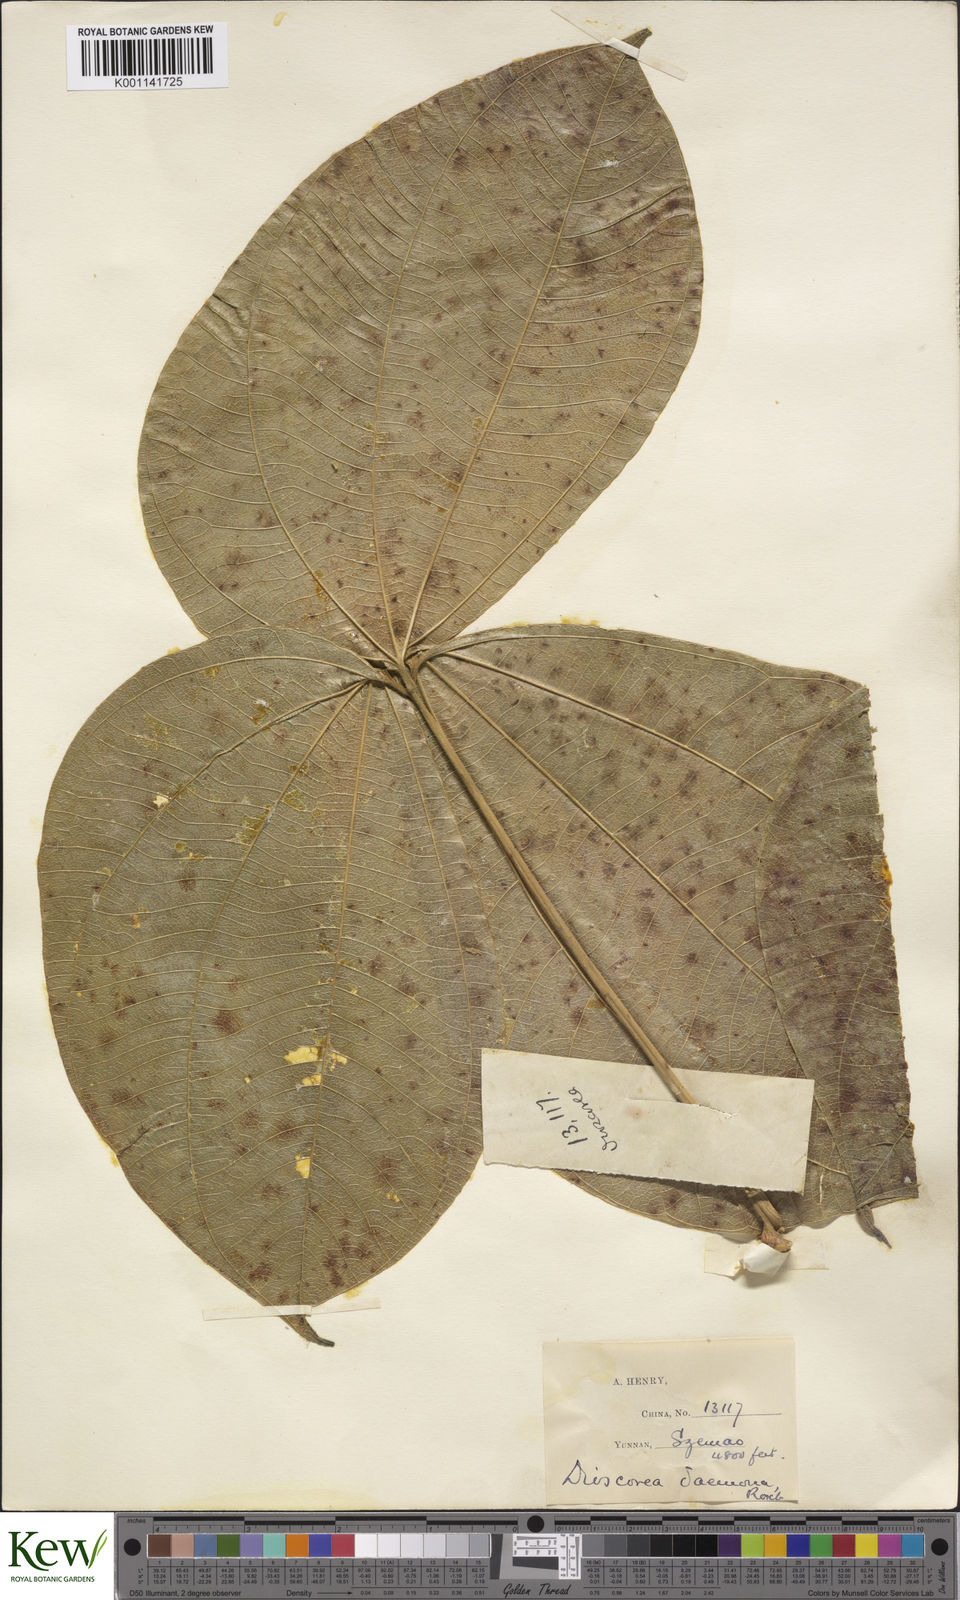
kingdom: Plantae
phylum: Tracheophyta
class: Liliopsida
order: Dioscoreales
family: Dioscoreaceae
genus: Dioscorea
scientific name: Dioscorea hispida
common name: Asiatic bitter yam
